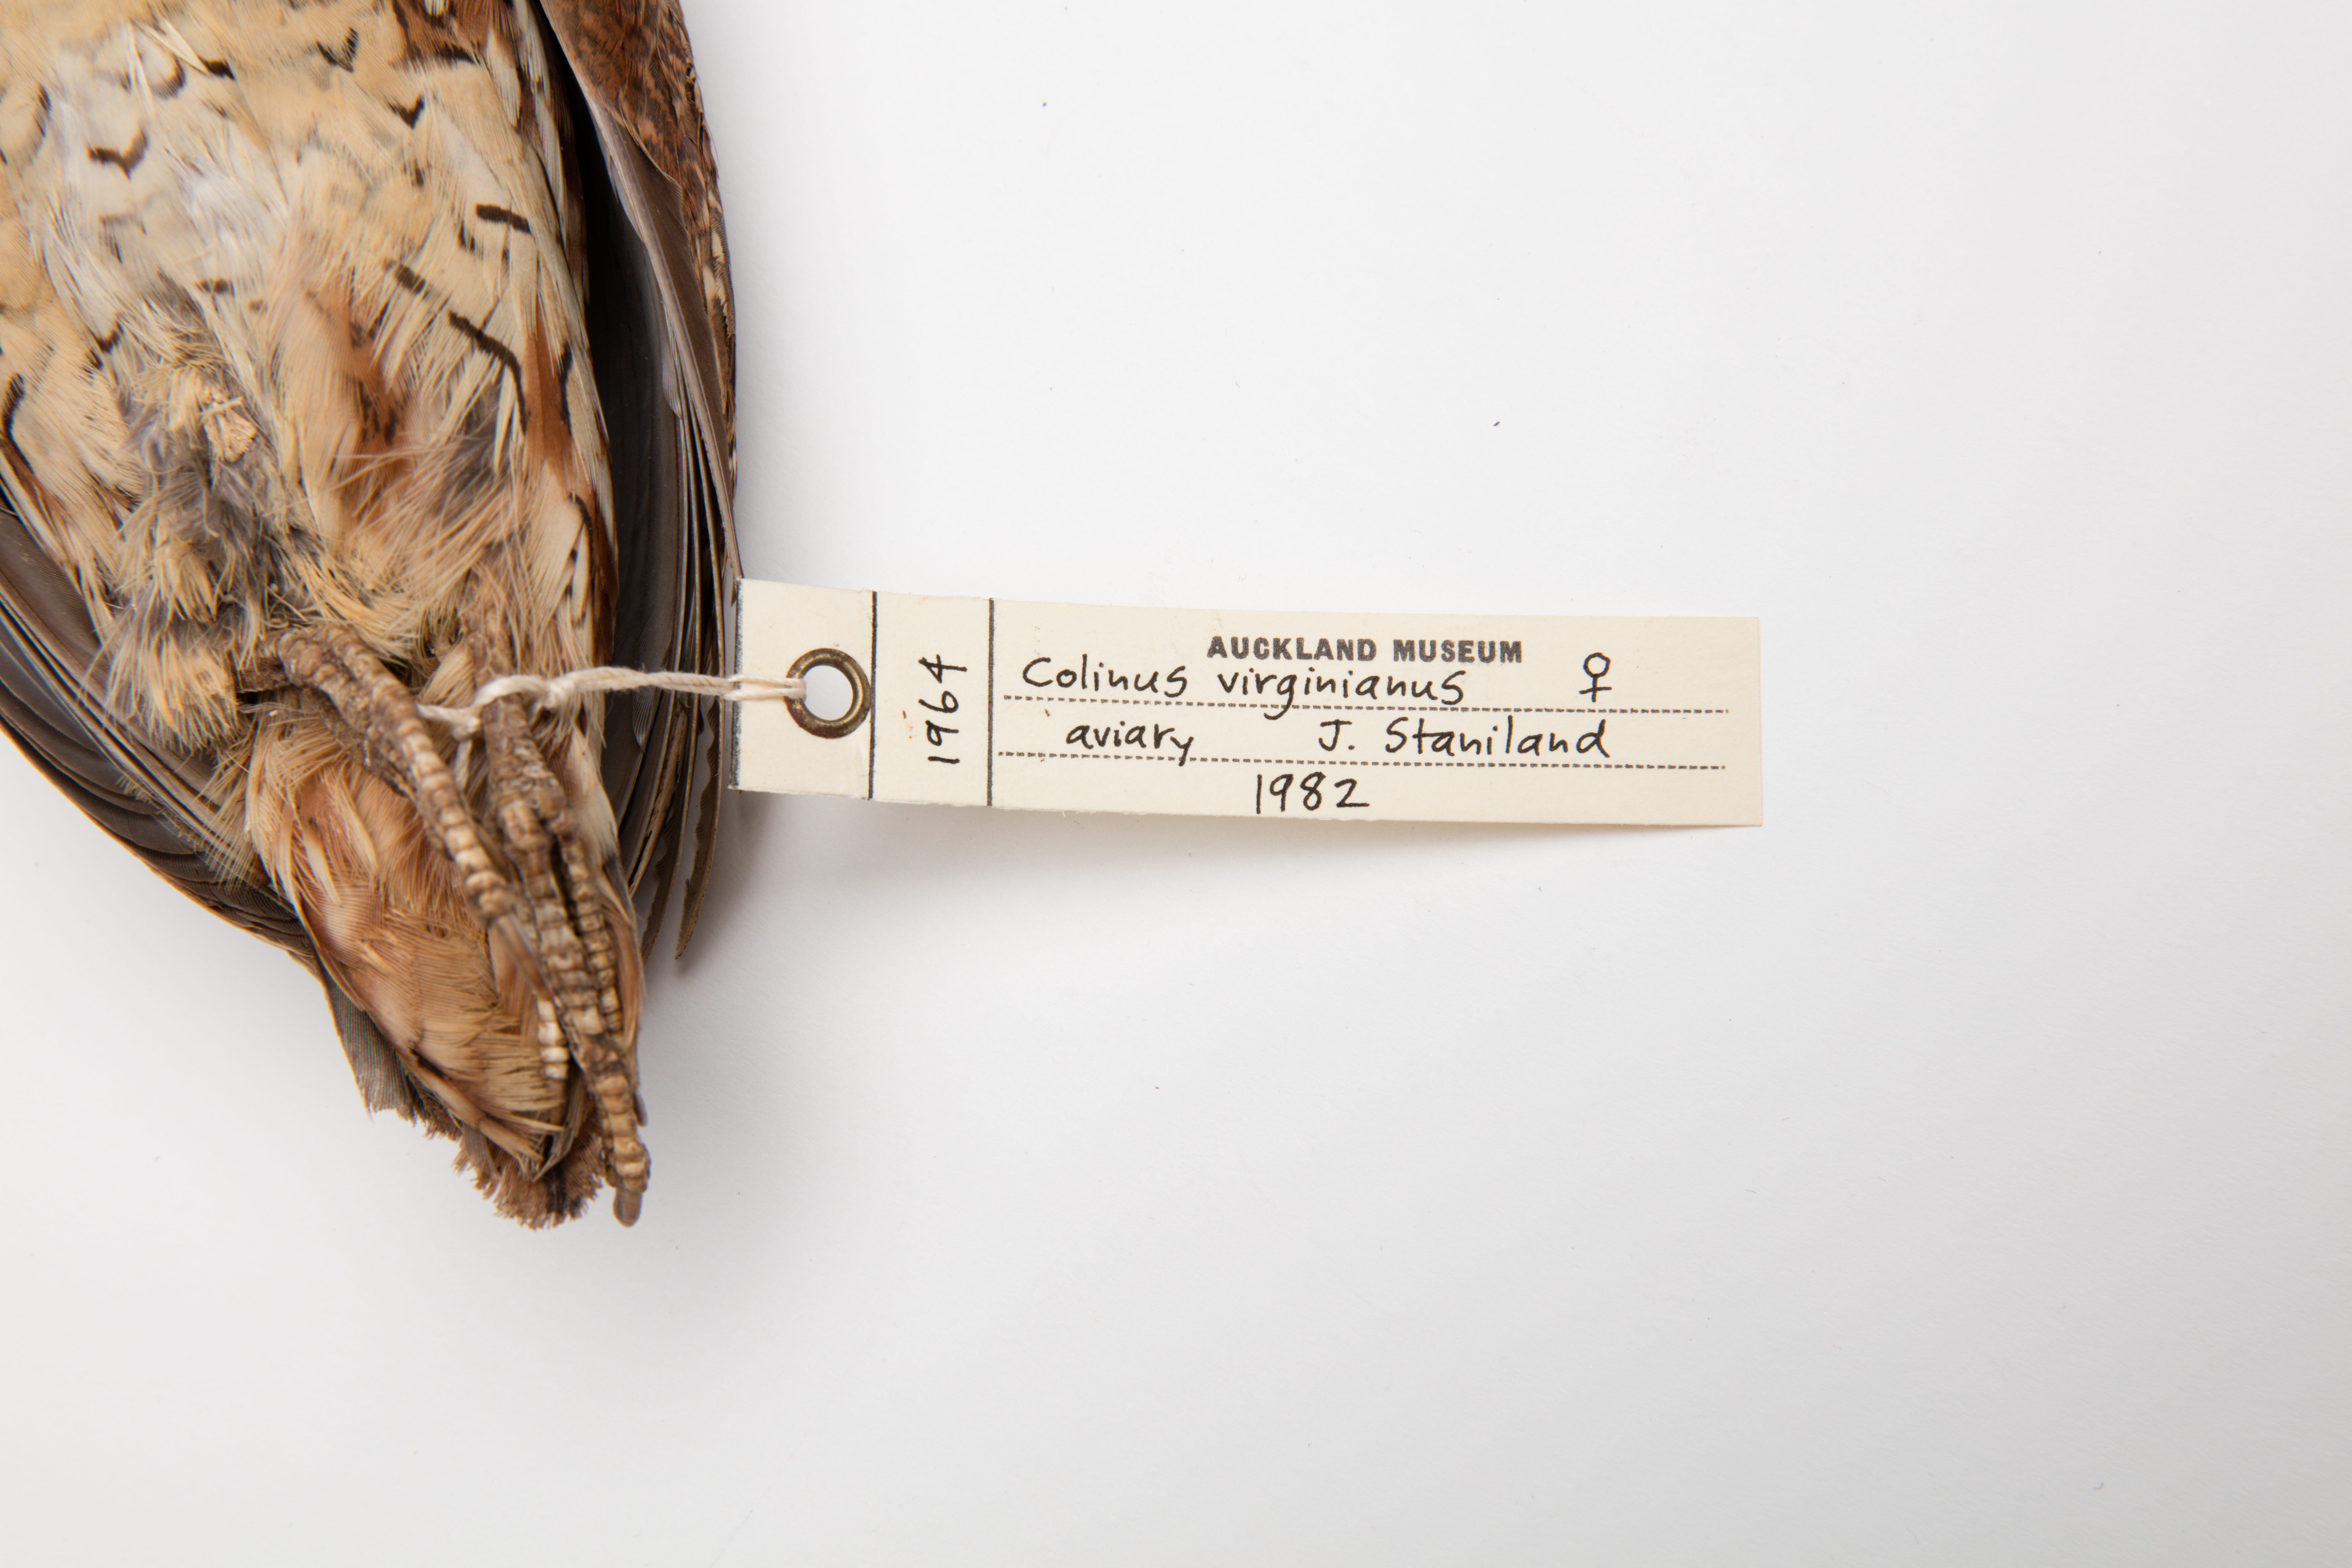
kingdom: Animalia
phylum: Chordata
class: Aves
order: Galliformes
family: Odontophoridae
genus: Colinus
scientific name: Colinus virginianus
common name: Northern bobwhite
